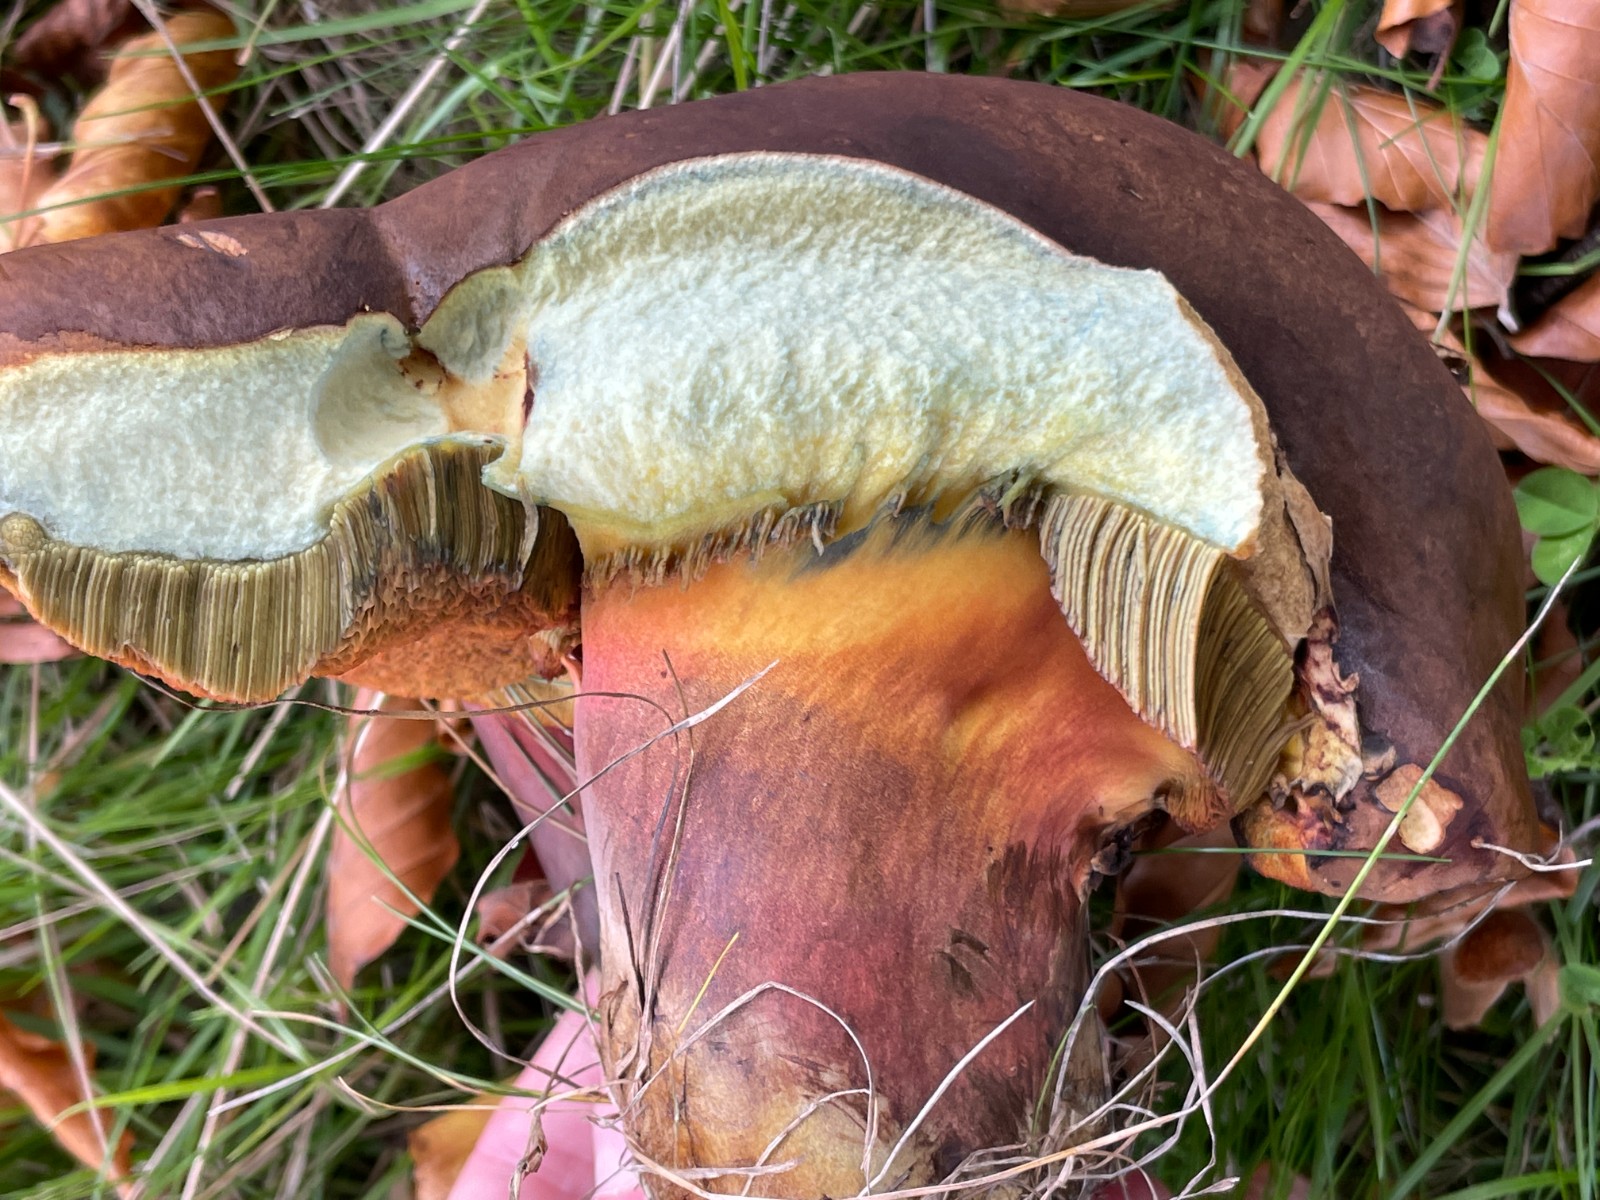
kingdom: Fungi
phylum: Basidiomycota
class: Agaricomycetes
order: Boletales
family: Boletaceae
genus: Neoboletus
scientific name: Neoboletus xanthopus
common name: finprikket indigorørhat
